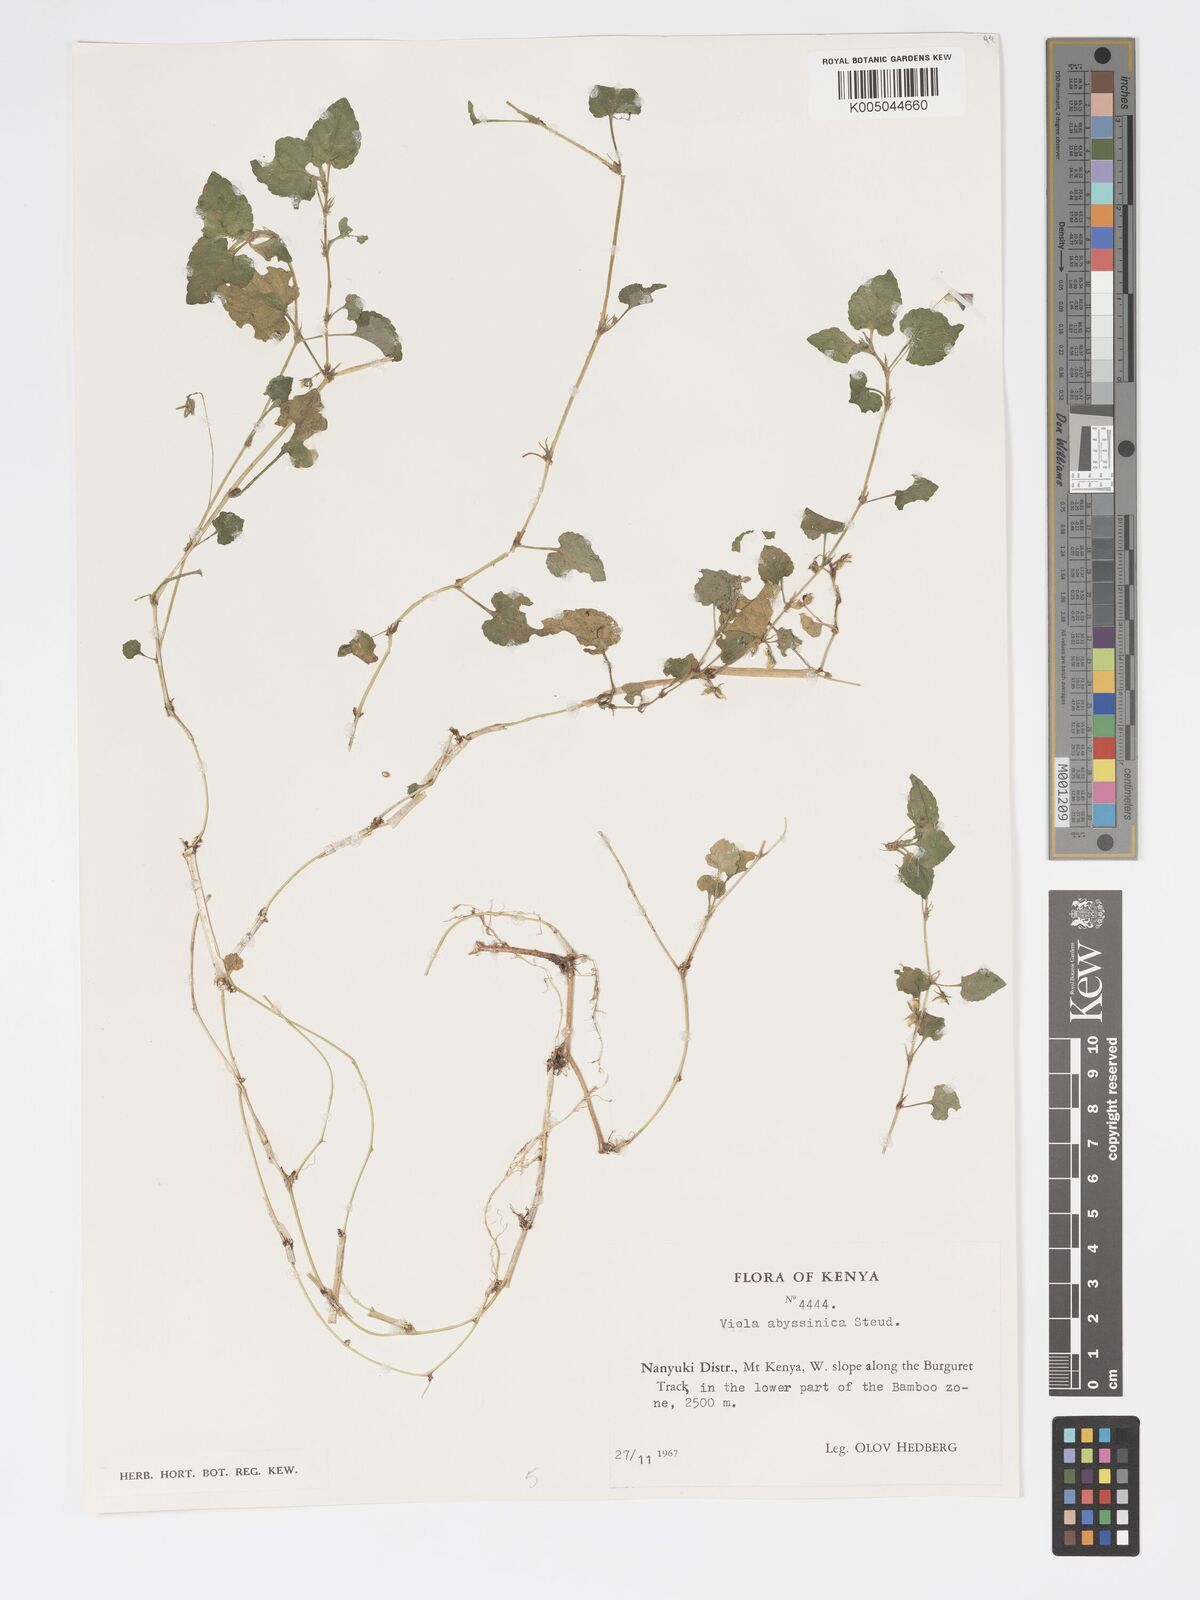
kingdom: Plantae
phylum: Tracheophyta
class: Magnoliopsida
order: Malpighiales
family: Violaceae
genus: Viola
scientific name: Viola abyssinica
